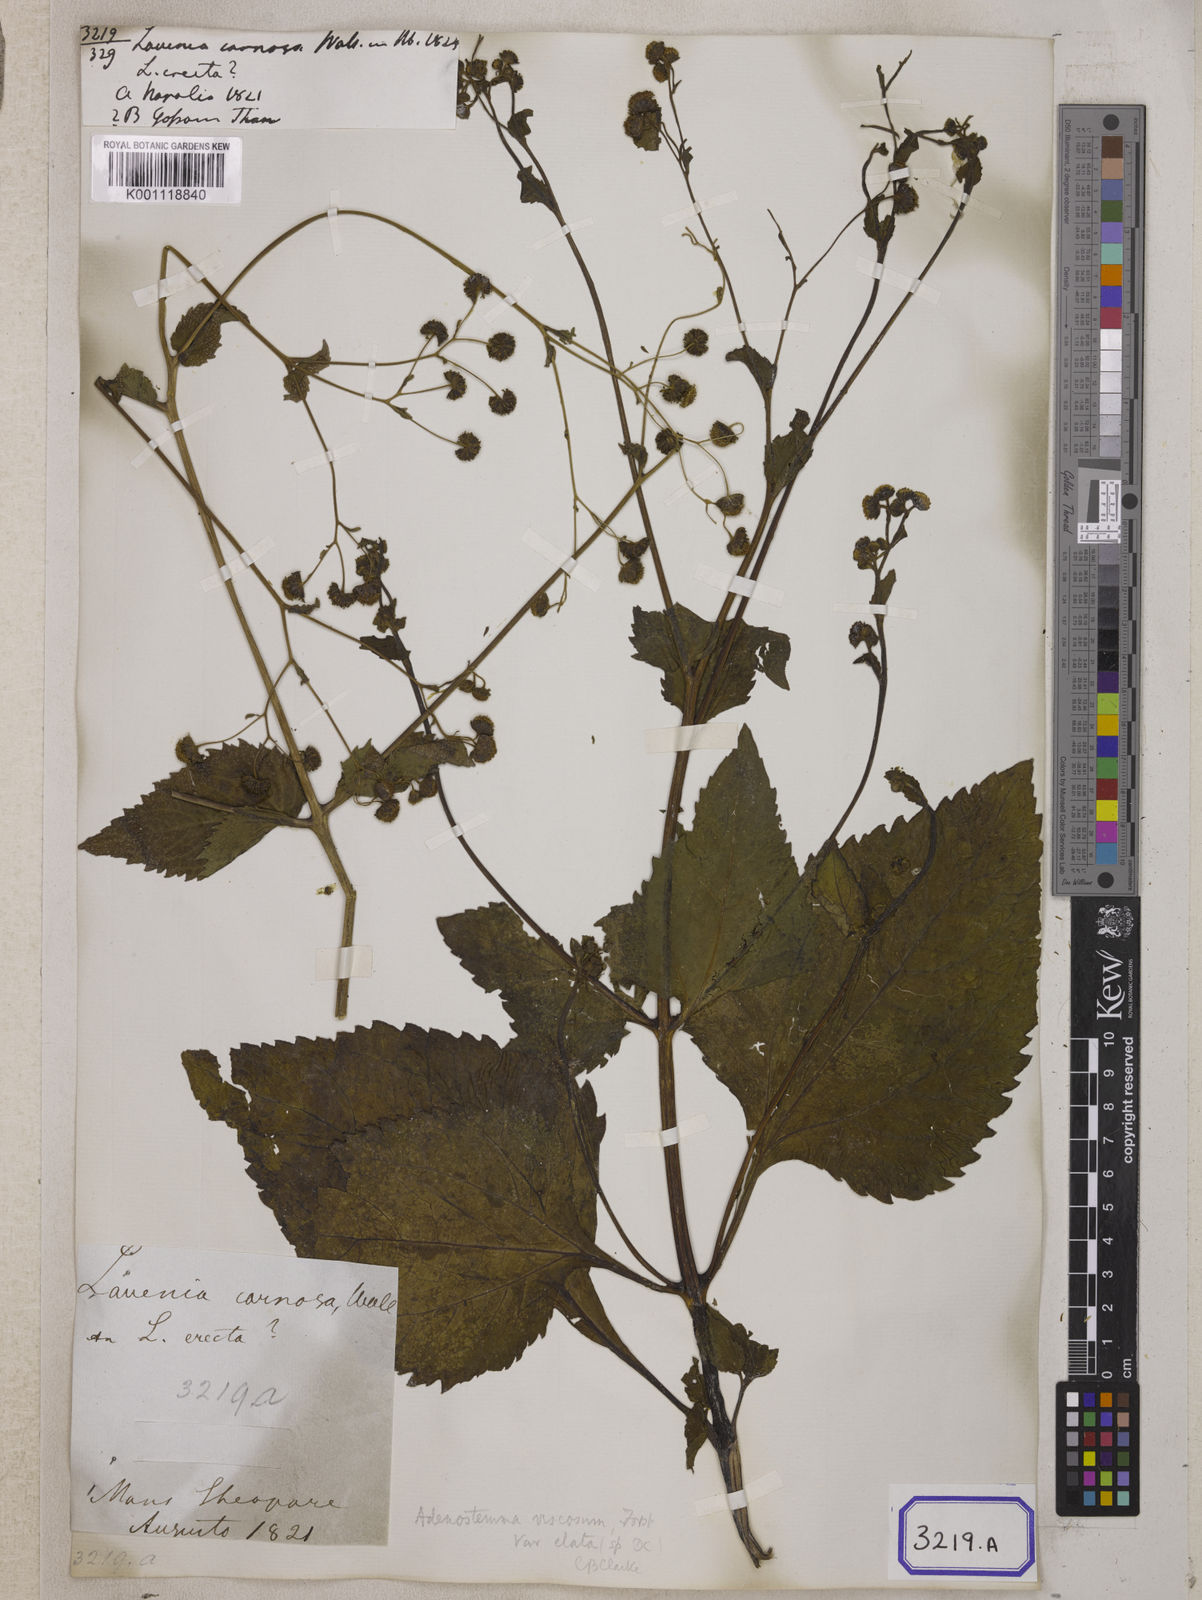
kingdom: Plantae
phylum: Tracheophyta
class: Magnoliopsida
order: Asterales
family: Asteraceae
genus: Adenostemma
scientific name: Adenostemma viscosum
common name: Dungweed
